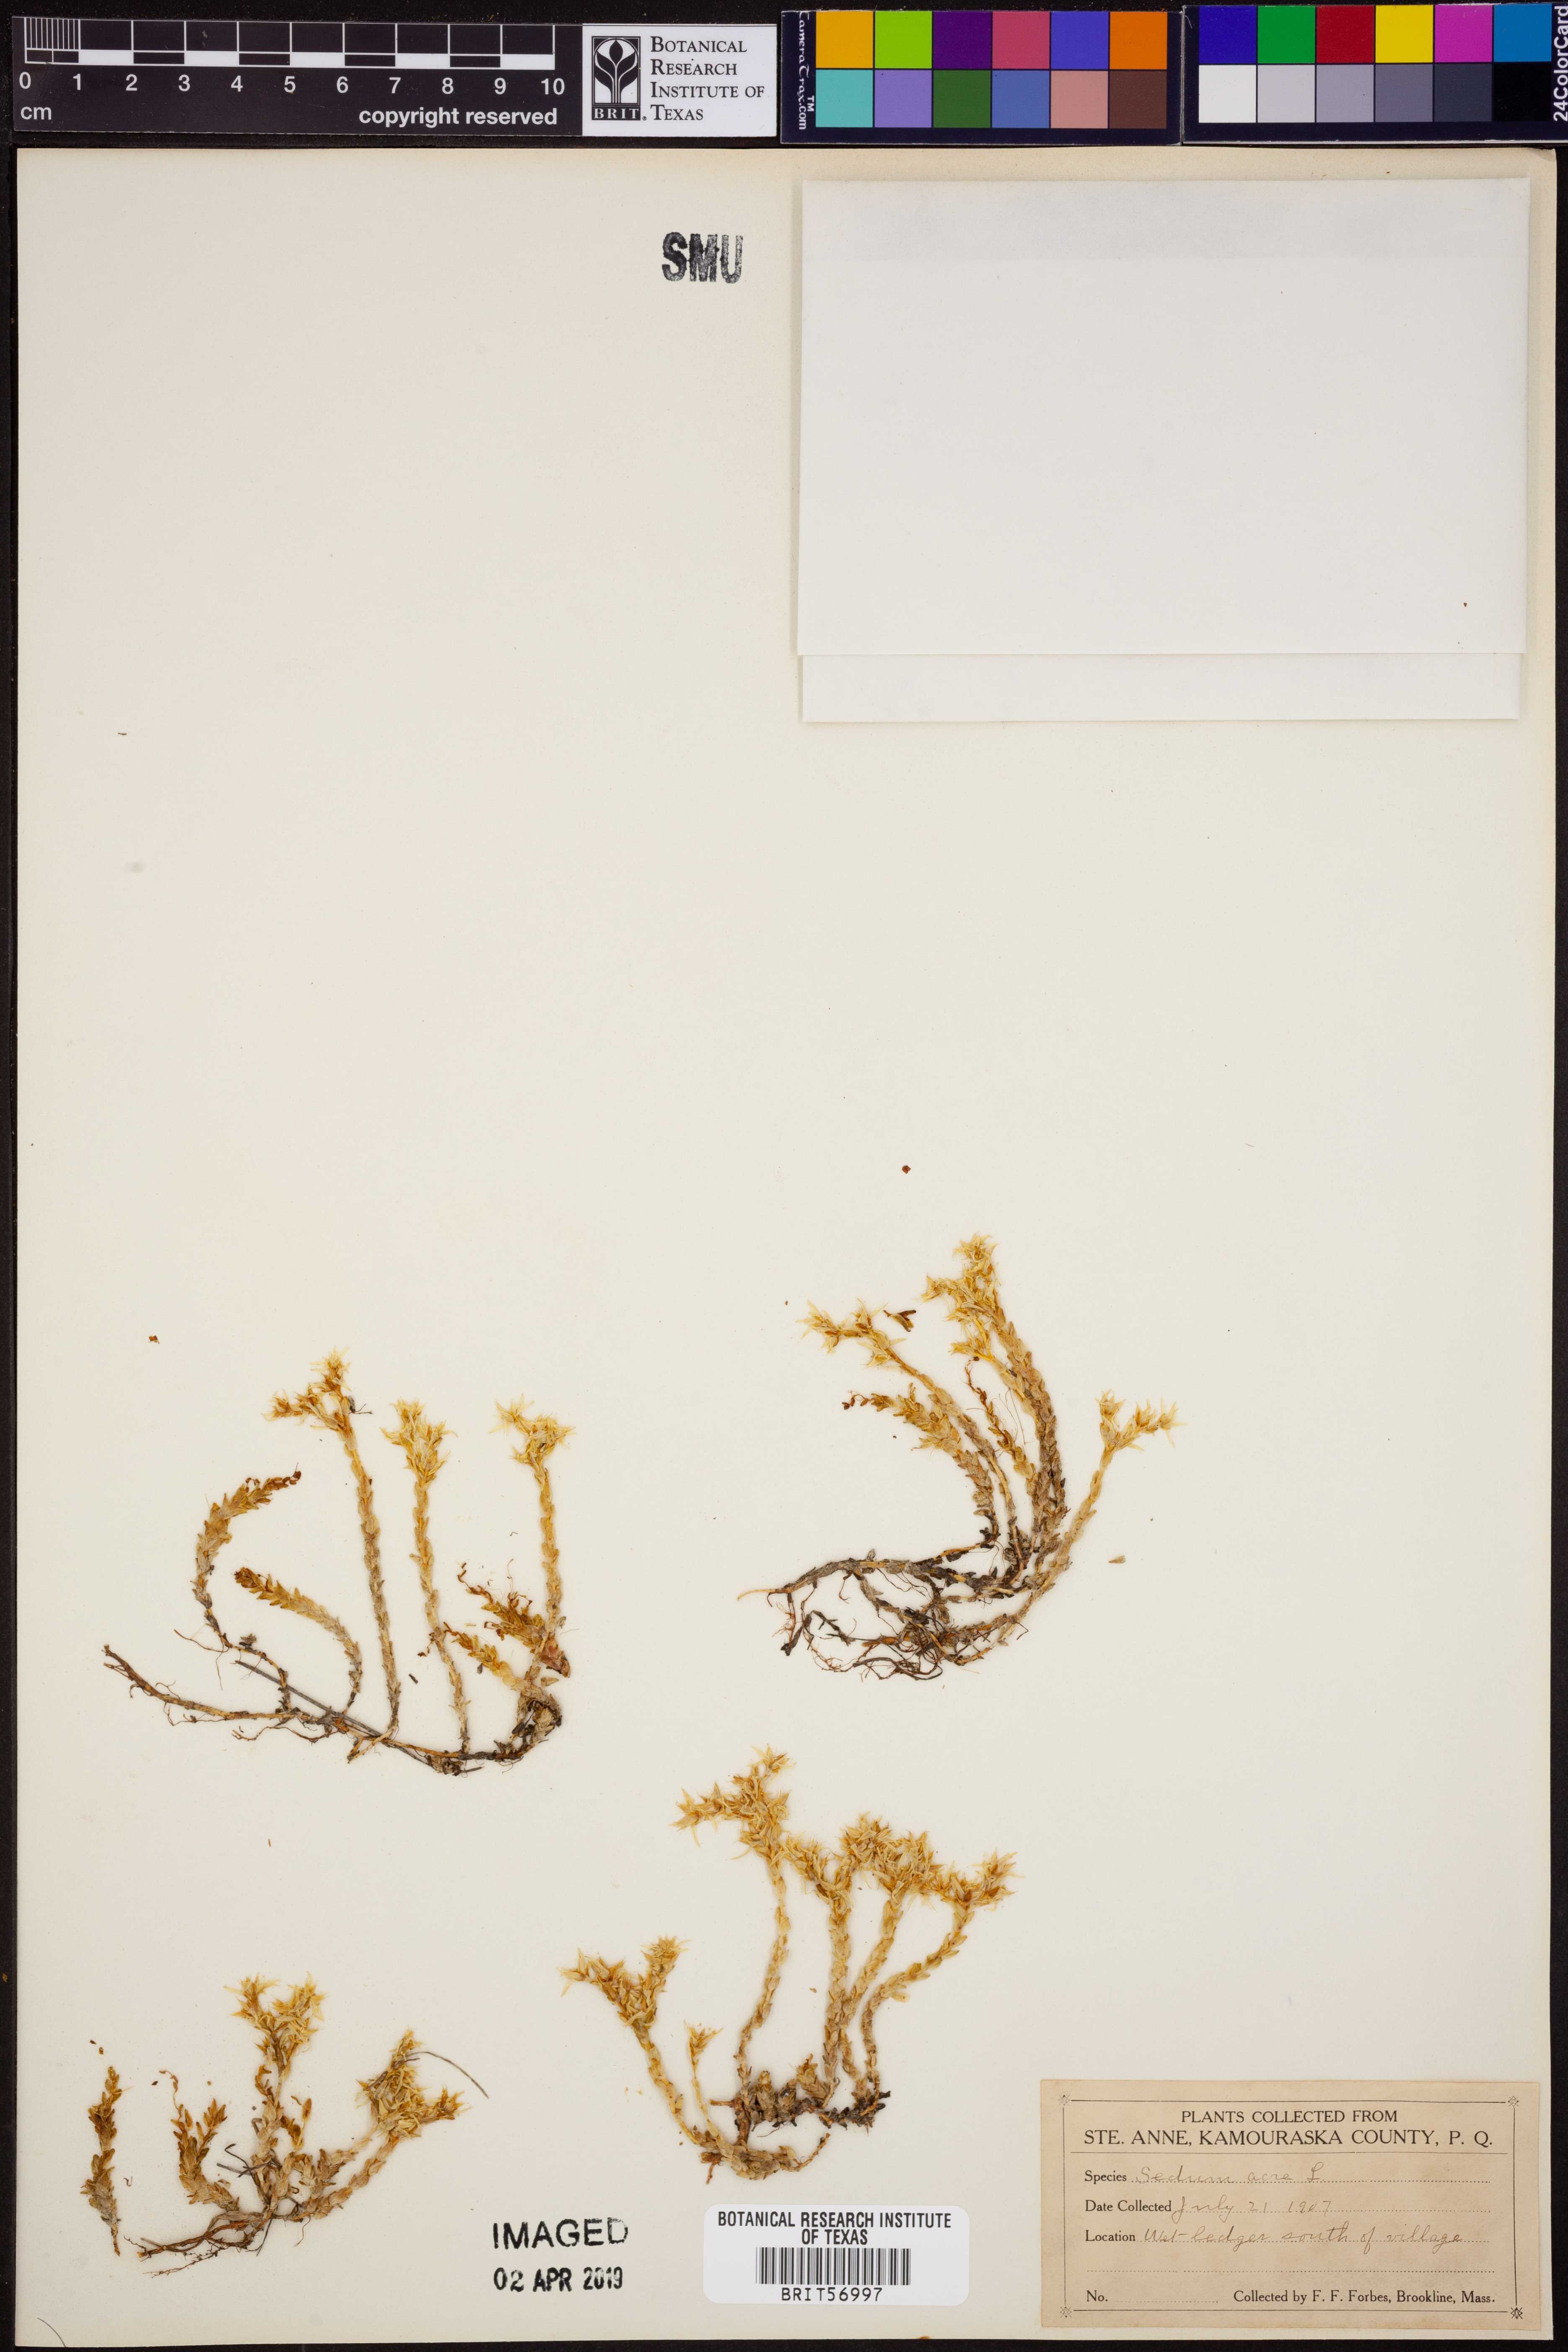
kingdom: Plantae
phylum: Tracheophyta
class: Magnoliopsida
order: Saxifragales
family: Crassulaceae
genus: Sedum
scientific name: Sedum acre
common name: Biting stonecrop
